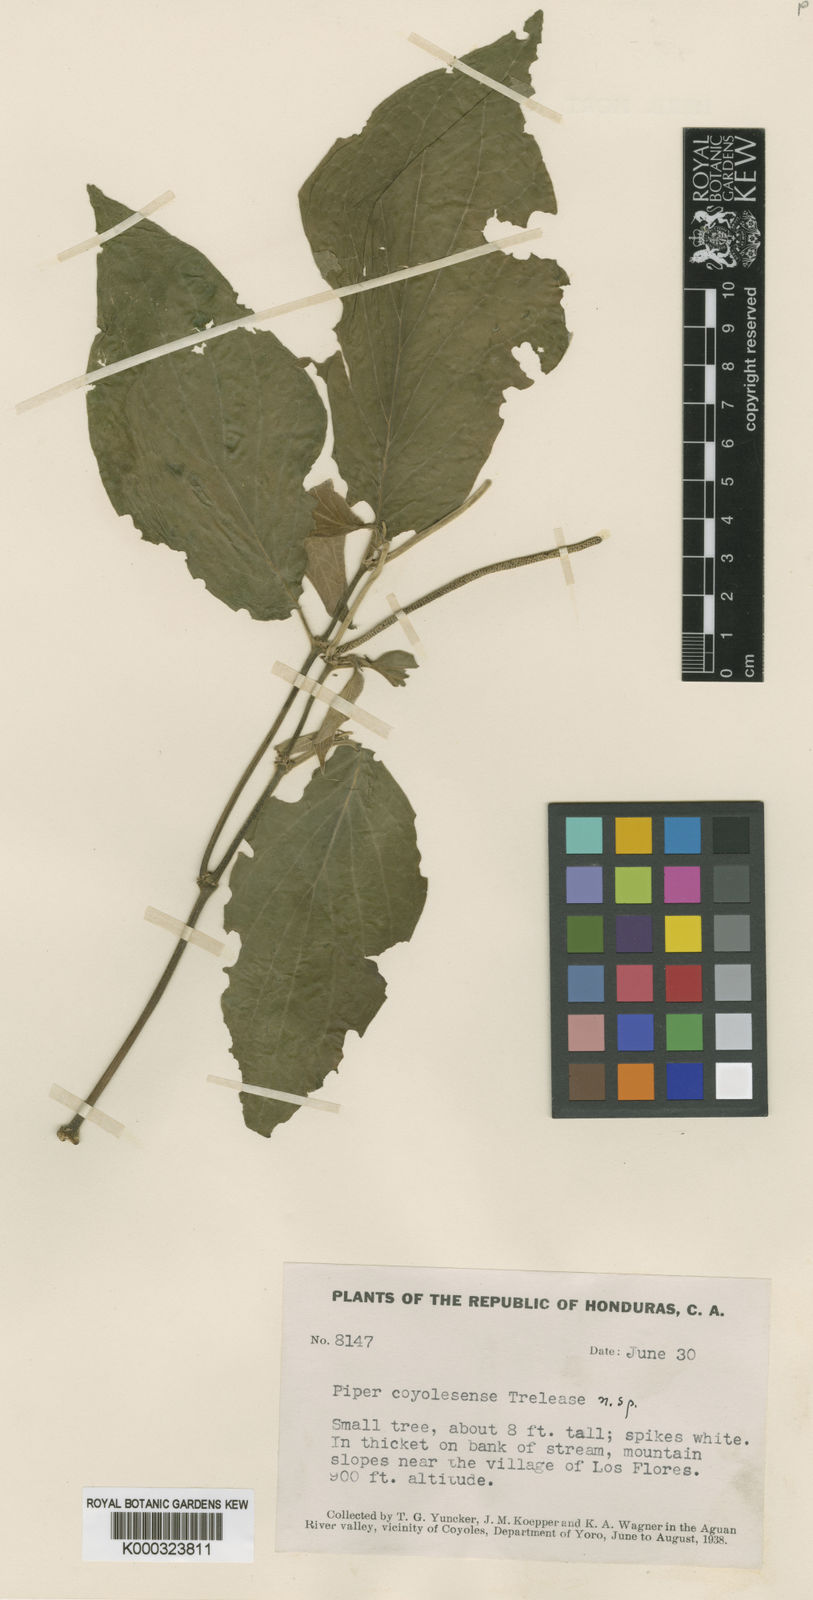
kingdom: Plantae
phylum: Tracheophyta
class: Magnoliopsida
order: Piperales
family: Piperaceae
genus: Piper
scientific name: Piper pseudofuligineum
